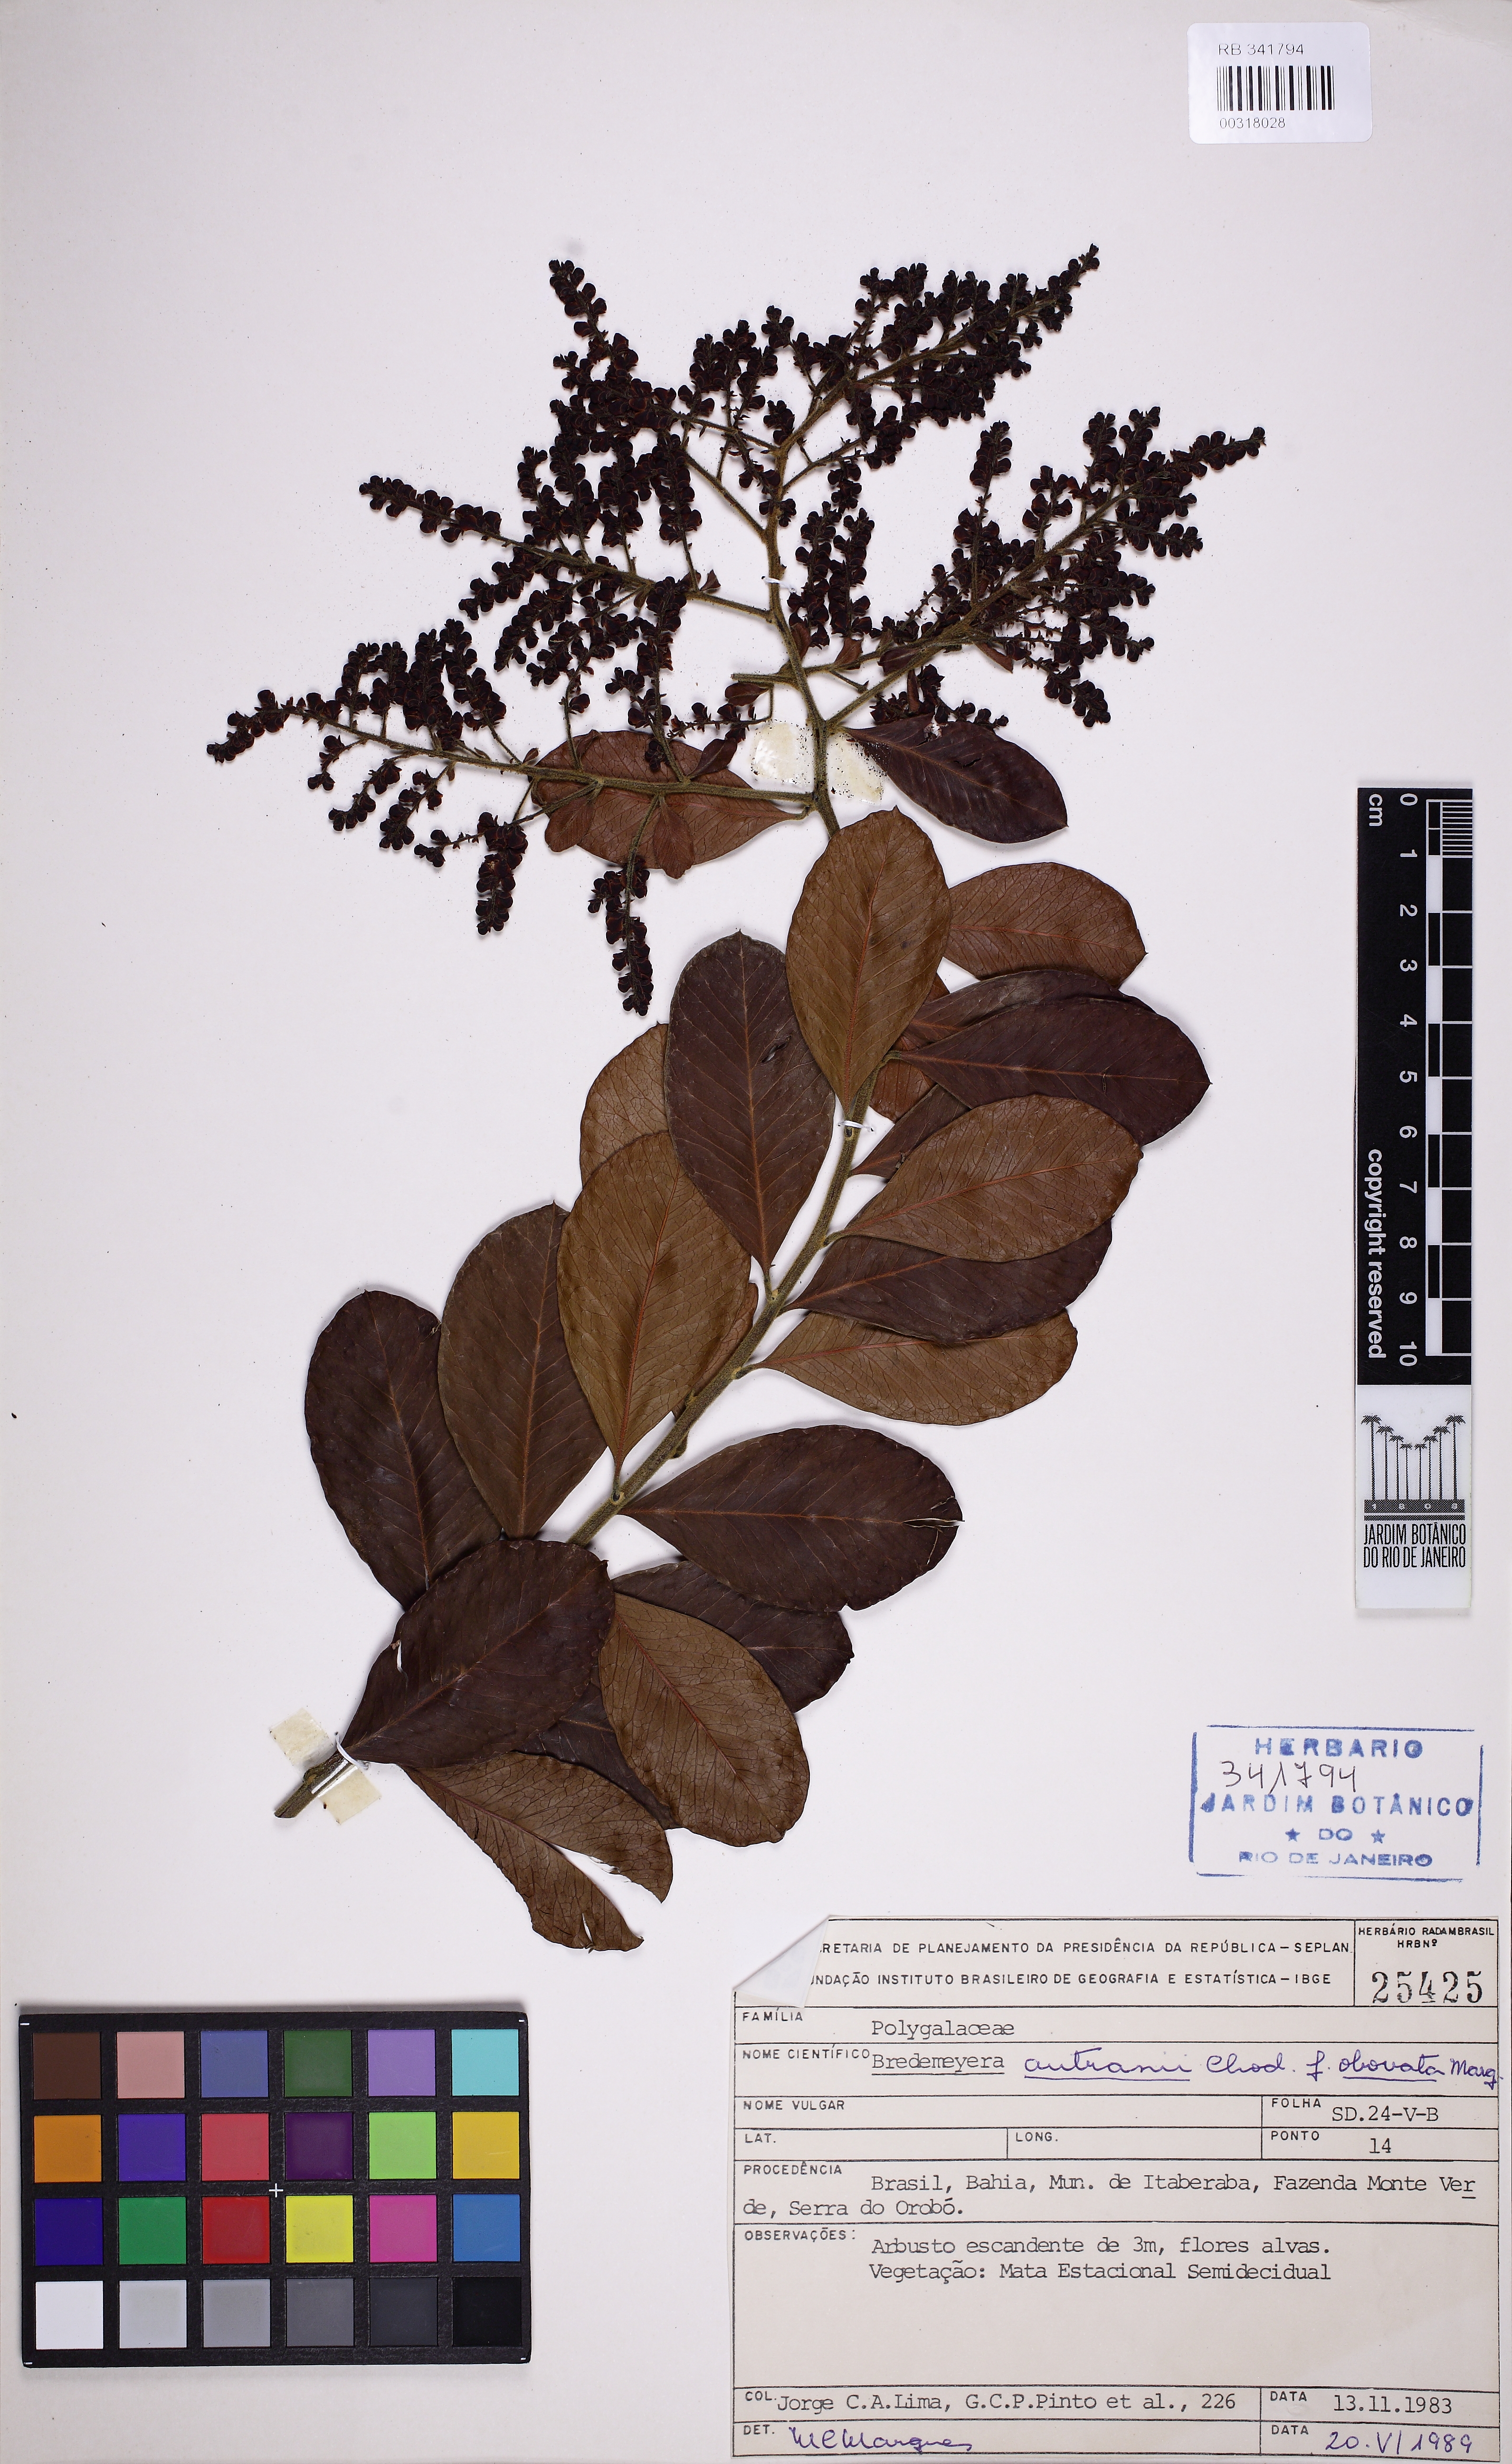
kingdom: Plantae
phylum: Tracheophyta
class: Magnoliopsida
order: Fabales
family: Polygalaceae
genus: Bredemeyera
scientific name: Bredemeyera disperma
